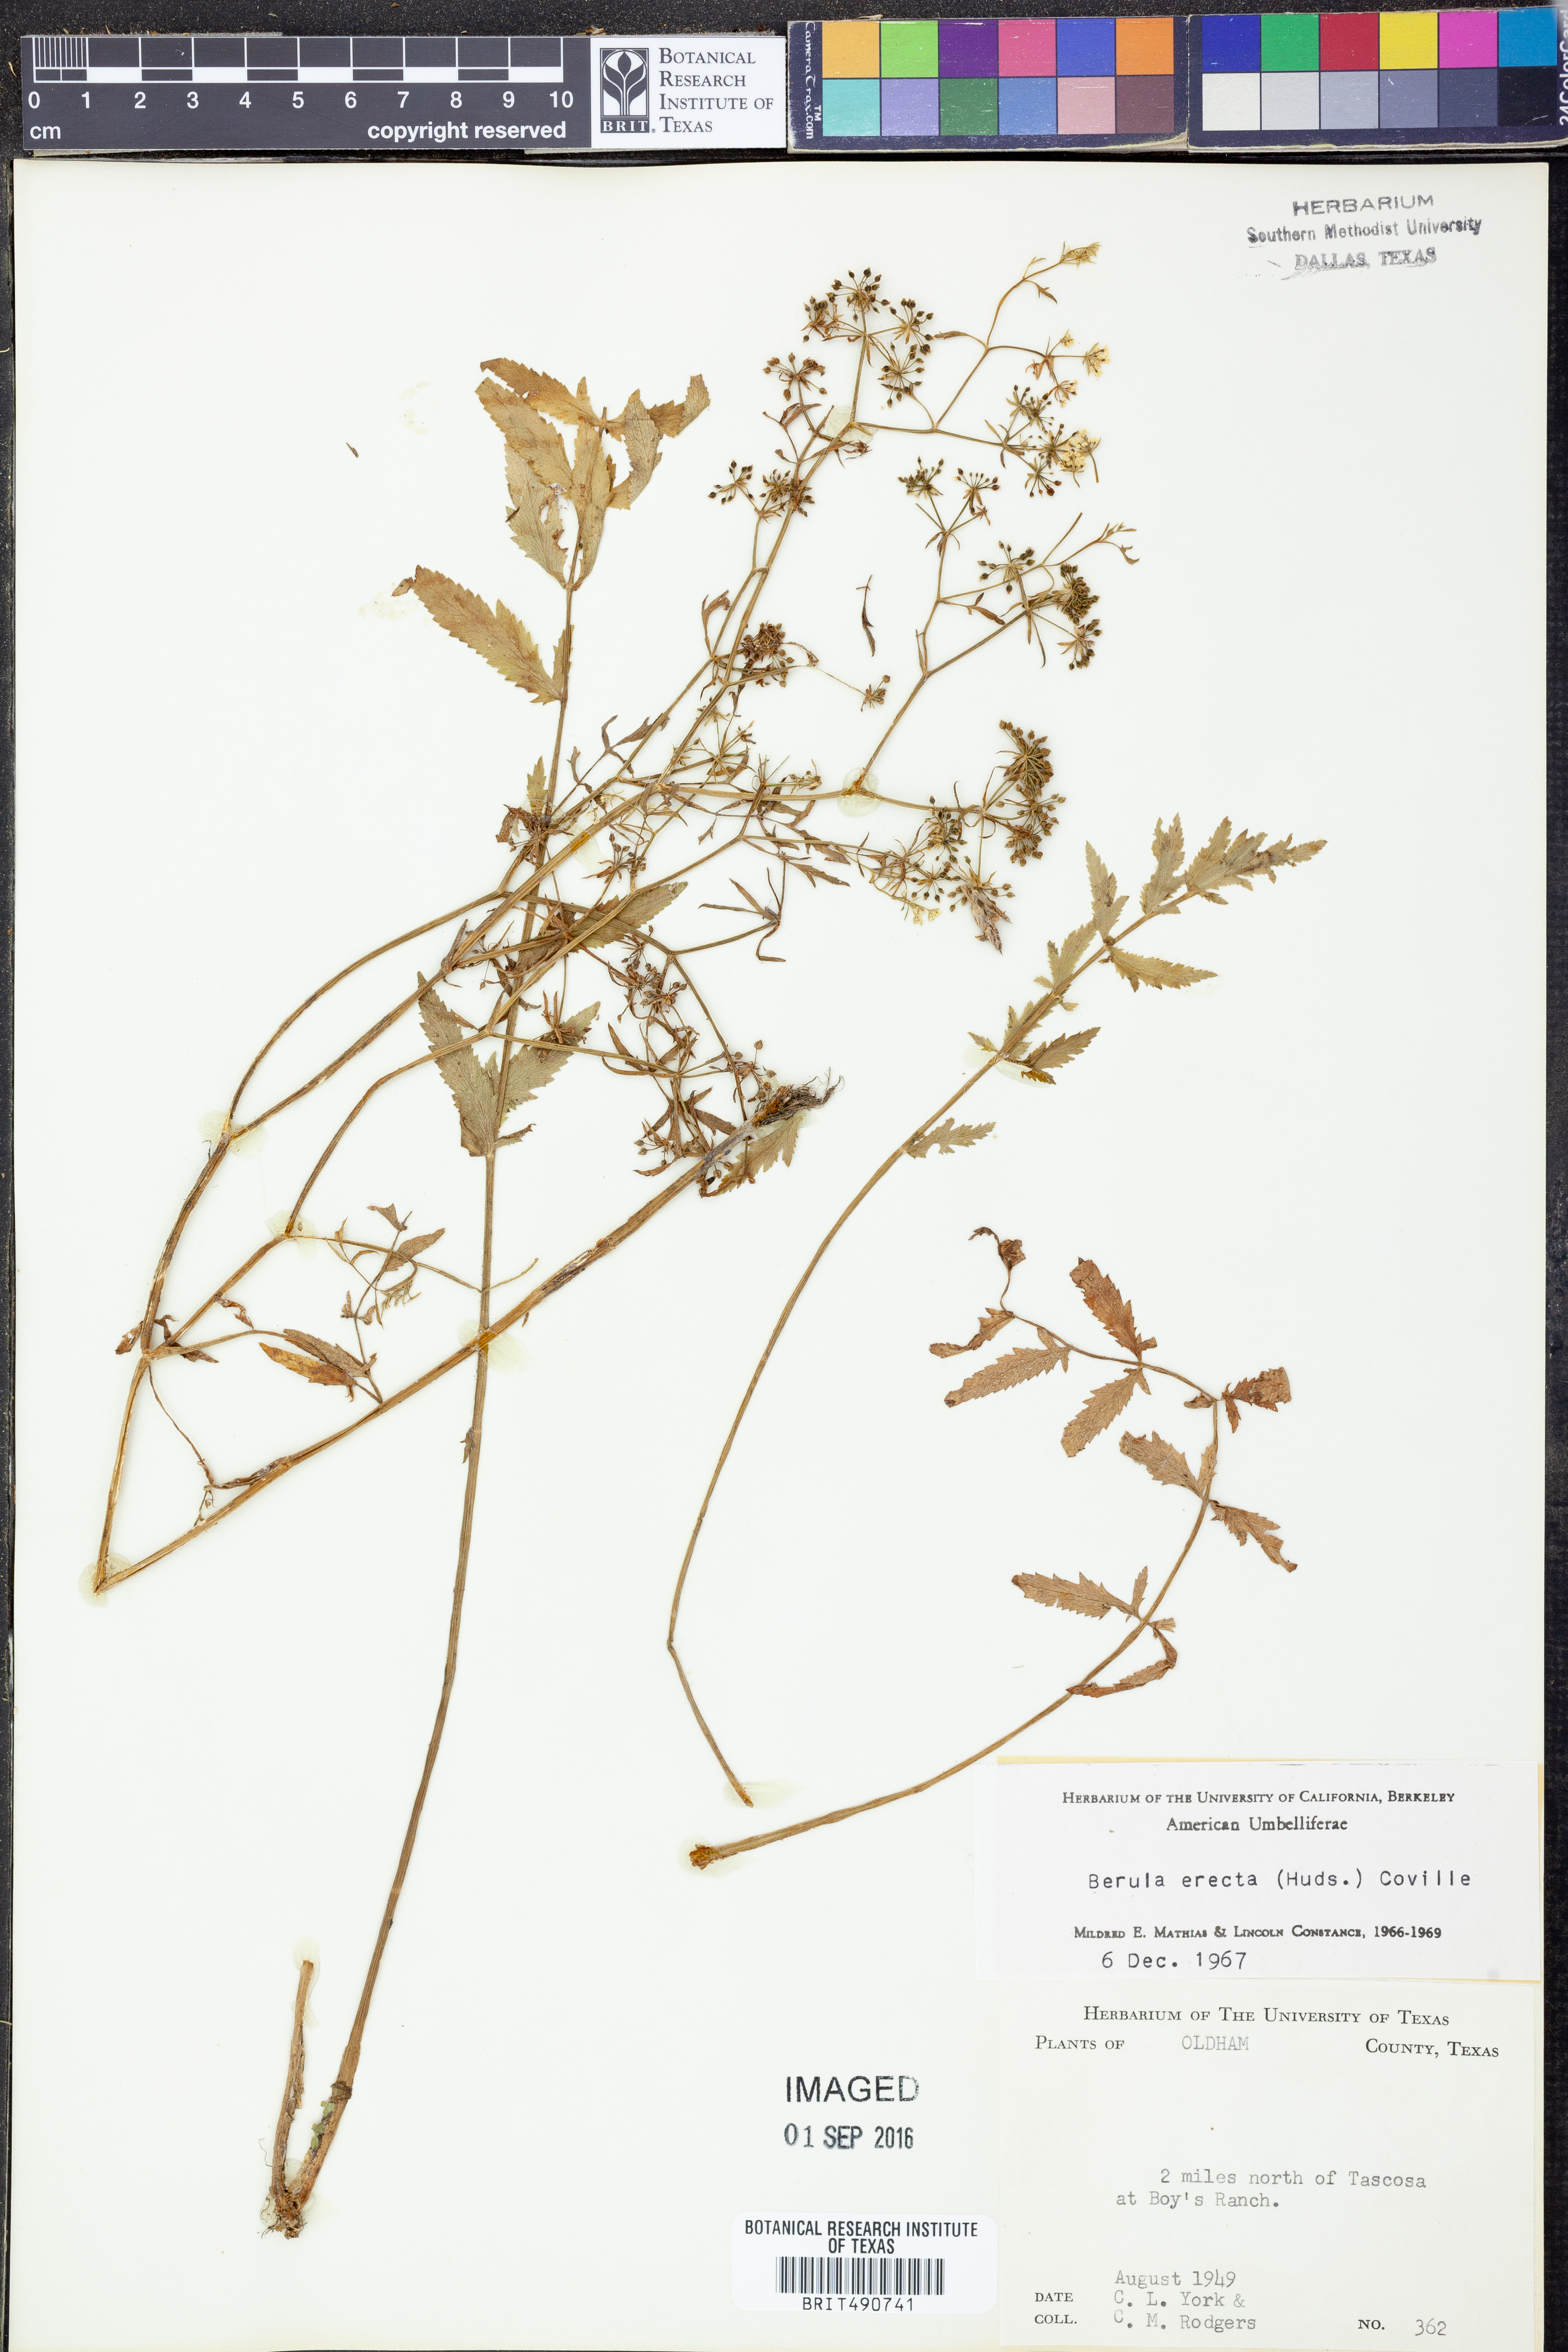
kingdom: Plantae
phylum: Tracheophyta
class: Magnoliopsida
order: Apiales
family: Apiaceae
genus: Berula
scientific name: Berula erecta
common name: Lesser water-parsnip
